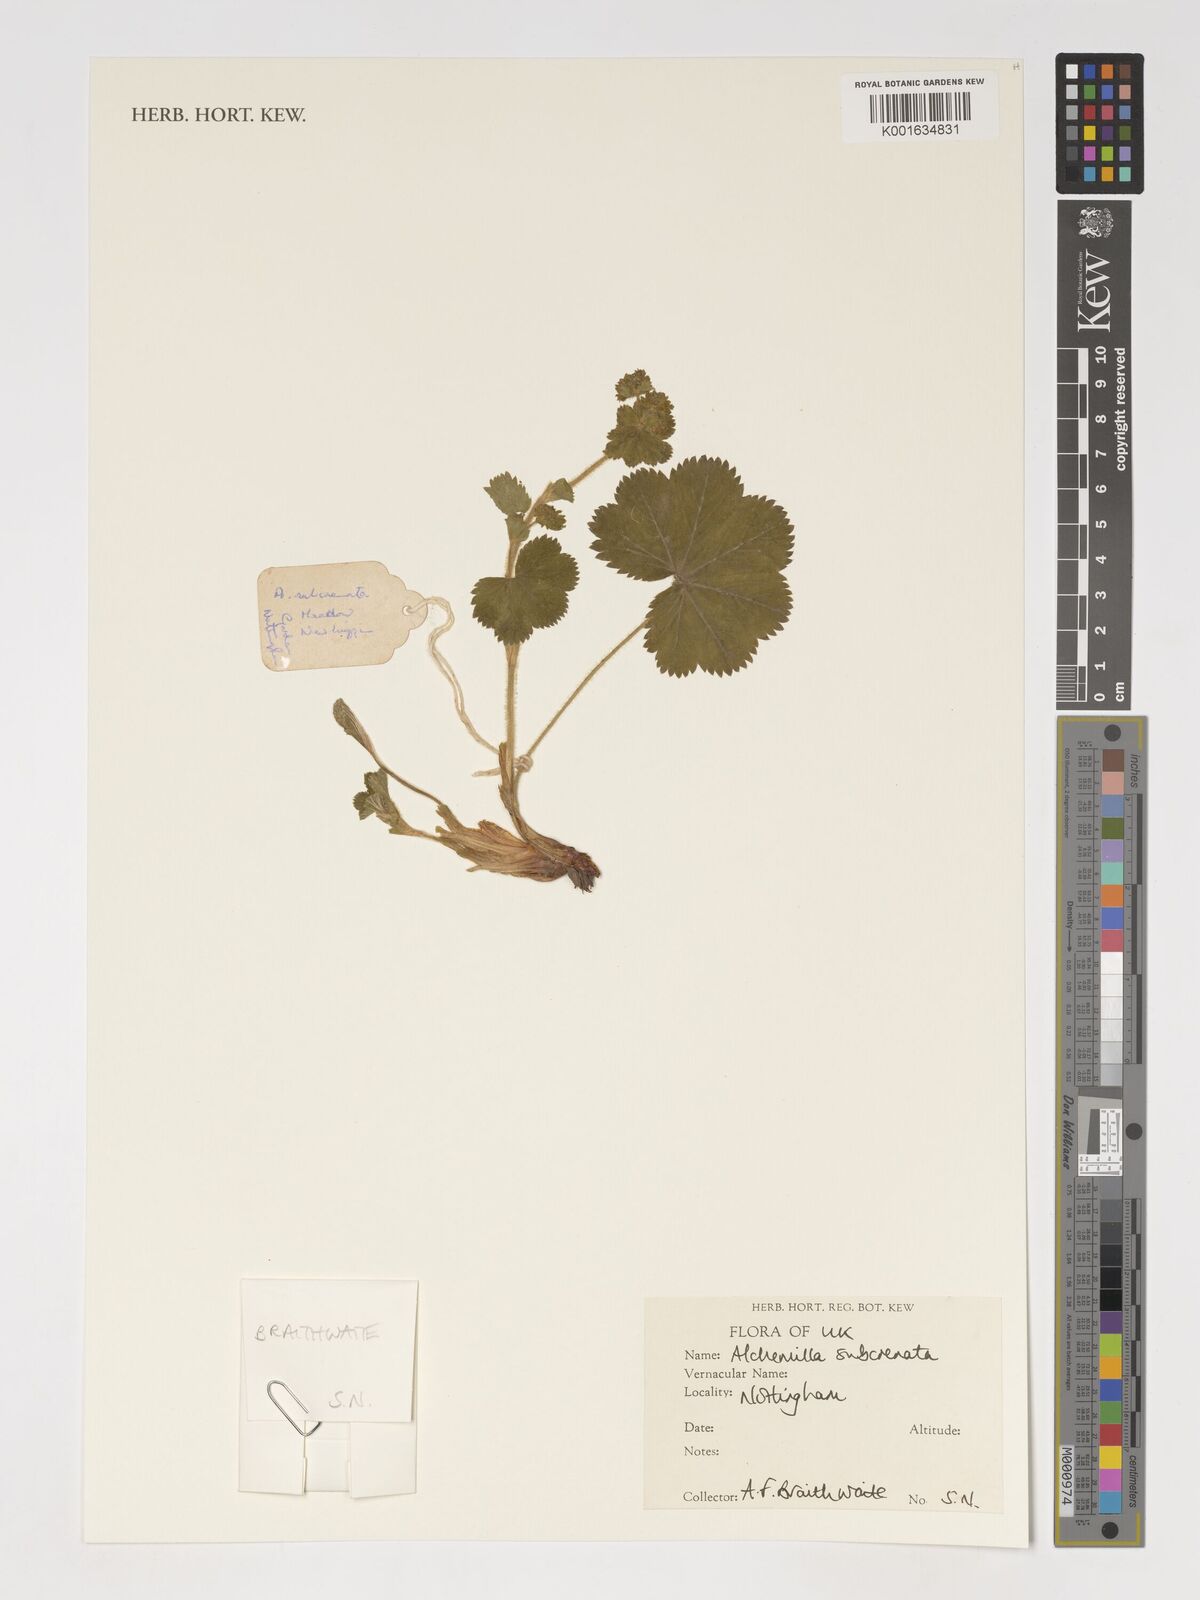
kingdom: Plantae
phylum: Tracheophyta
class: Magnoliopsida
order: Rosales
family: Rosaceae
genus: Alchemilla
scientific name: Alchemilla subcrenata
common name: Broadtooth lady's mantle
